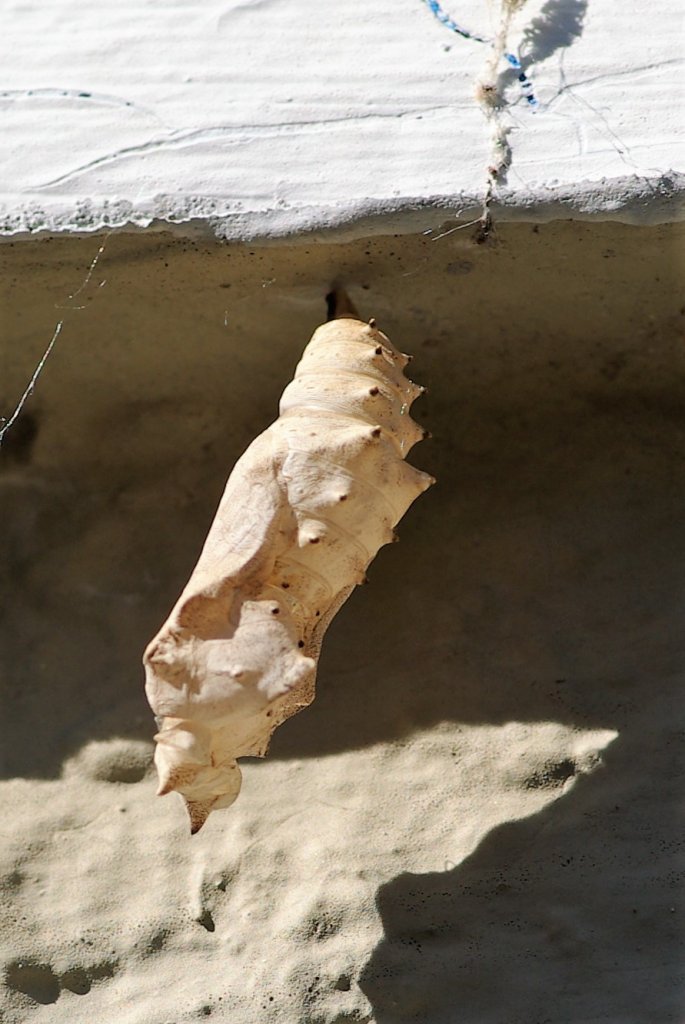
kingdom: Animalia
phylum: Arthropoda
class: Insecta
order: Lepidoptera
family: Nymphalidae
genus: Polygonia
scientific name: Polygonia vaualbum
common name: Compton Tortoiseshell
